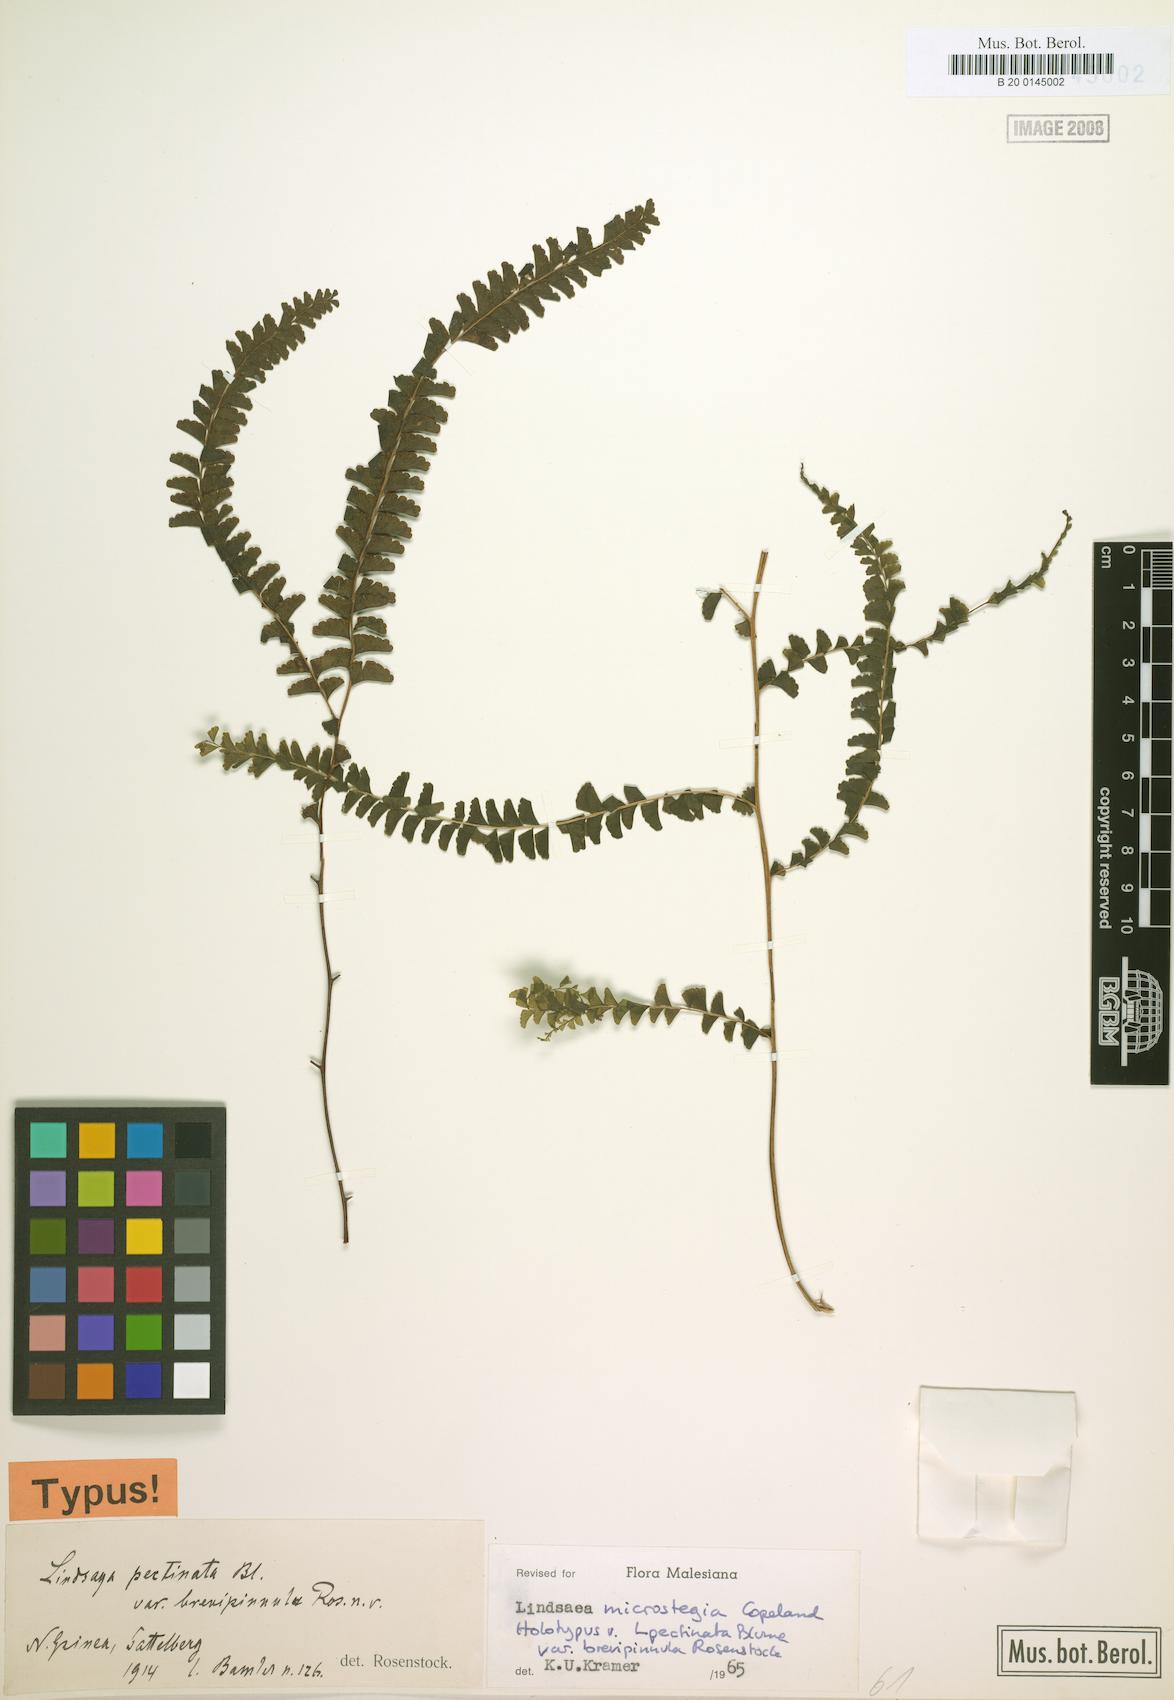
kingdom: Plantae
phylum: Tracheophyta
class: Polypodiopsida
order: Polypodiales
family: Lindsaeaceae
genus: Lindsaea
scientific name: Lindsaea microstegia
